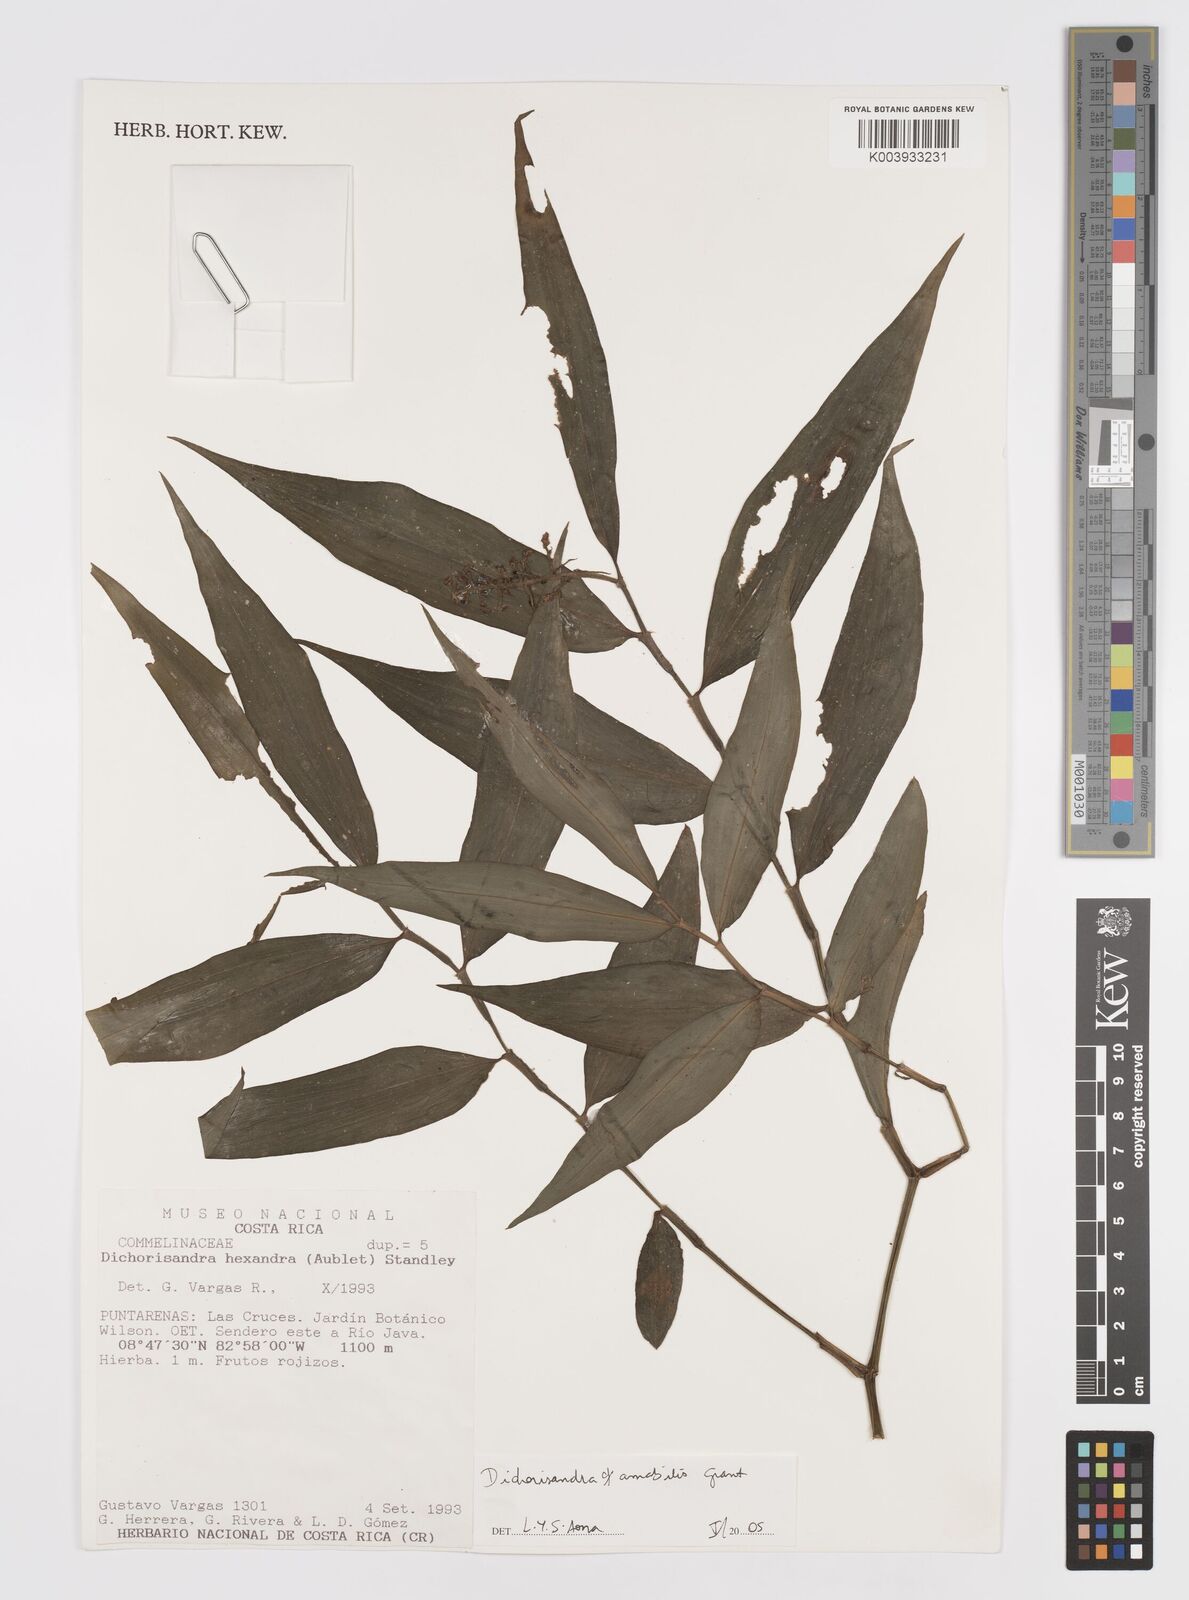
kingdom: Plantae
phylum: Tracheophyta
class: Liliopsida
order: Commelinales
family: Commelinaceae
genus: Dichorisandra
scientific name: Dichorisandra amabilis
